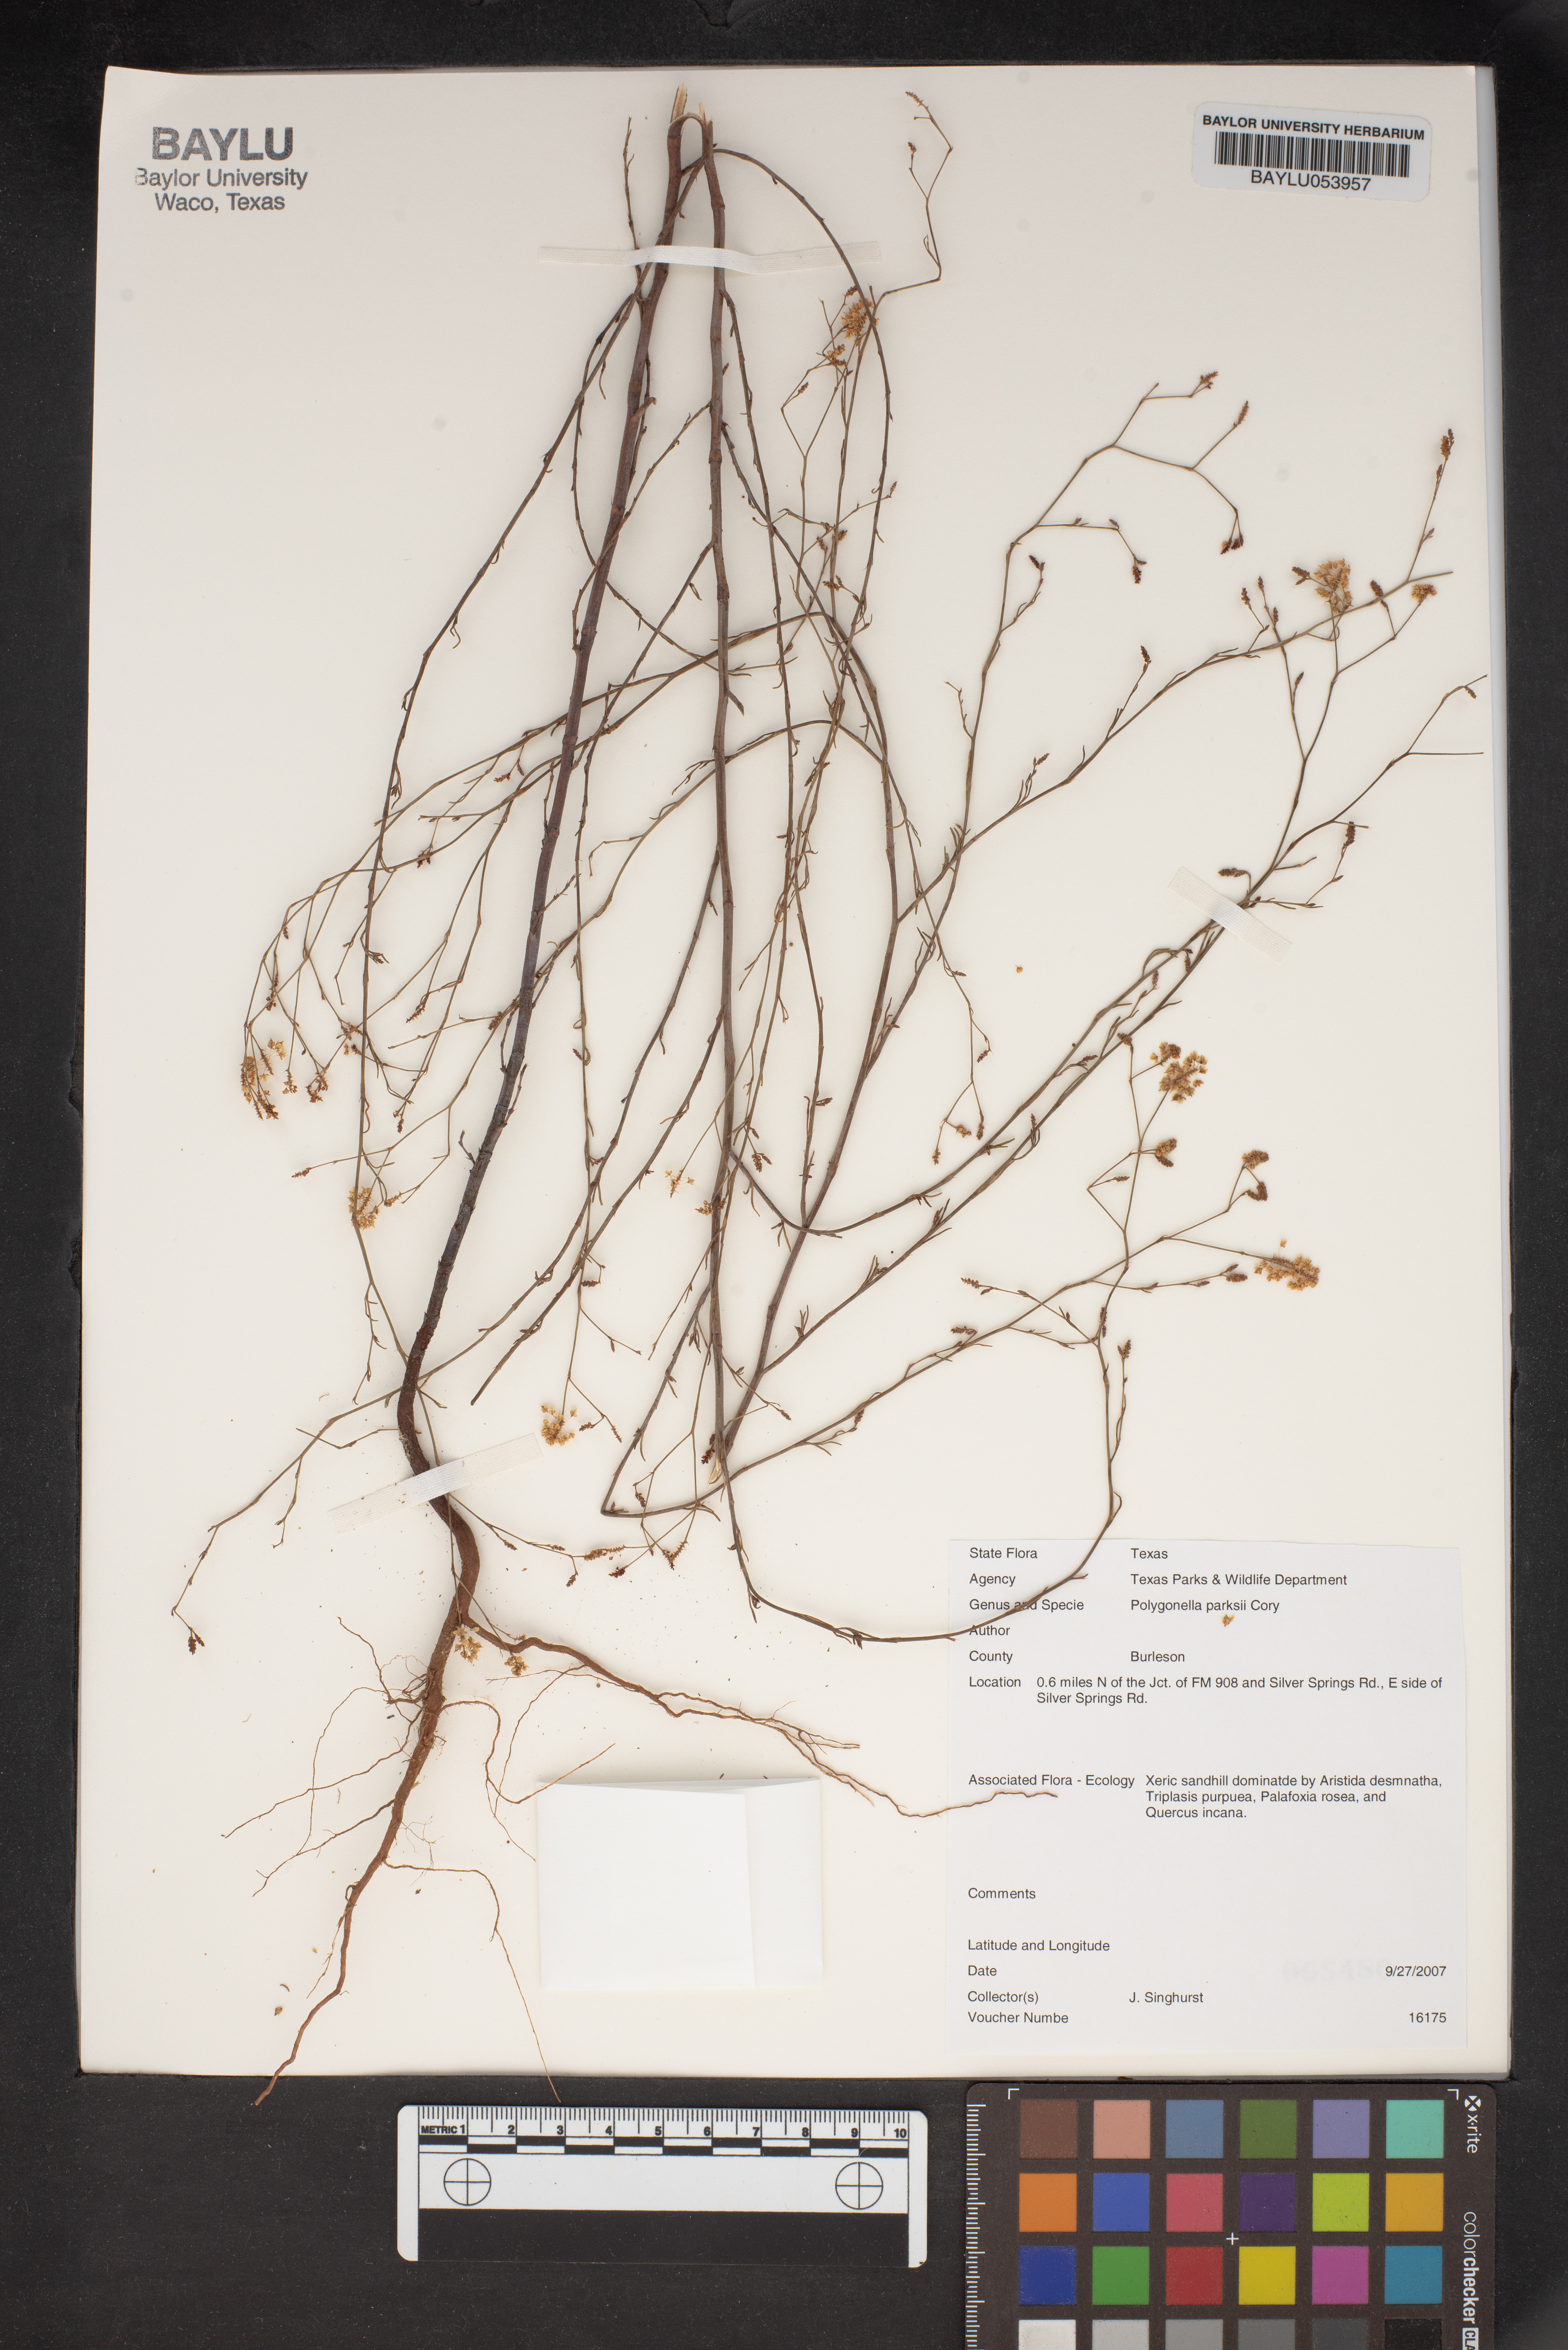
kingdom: Plantae
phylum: Tracheophyta
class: Magnoliopsida
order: Caryophyllales
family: Polygonaceae
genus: Polygonella
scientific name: Polygonella parksii
